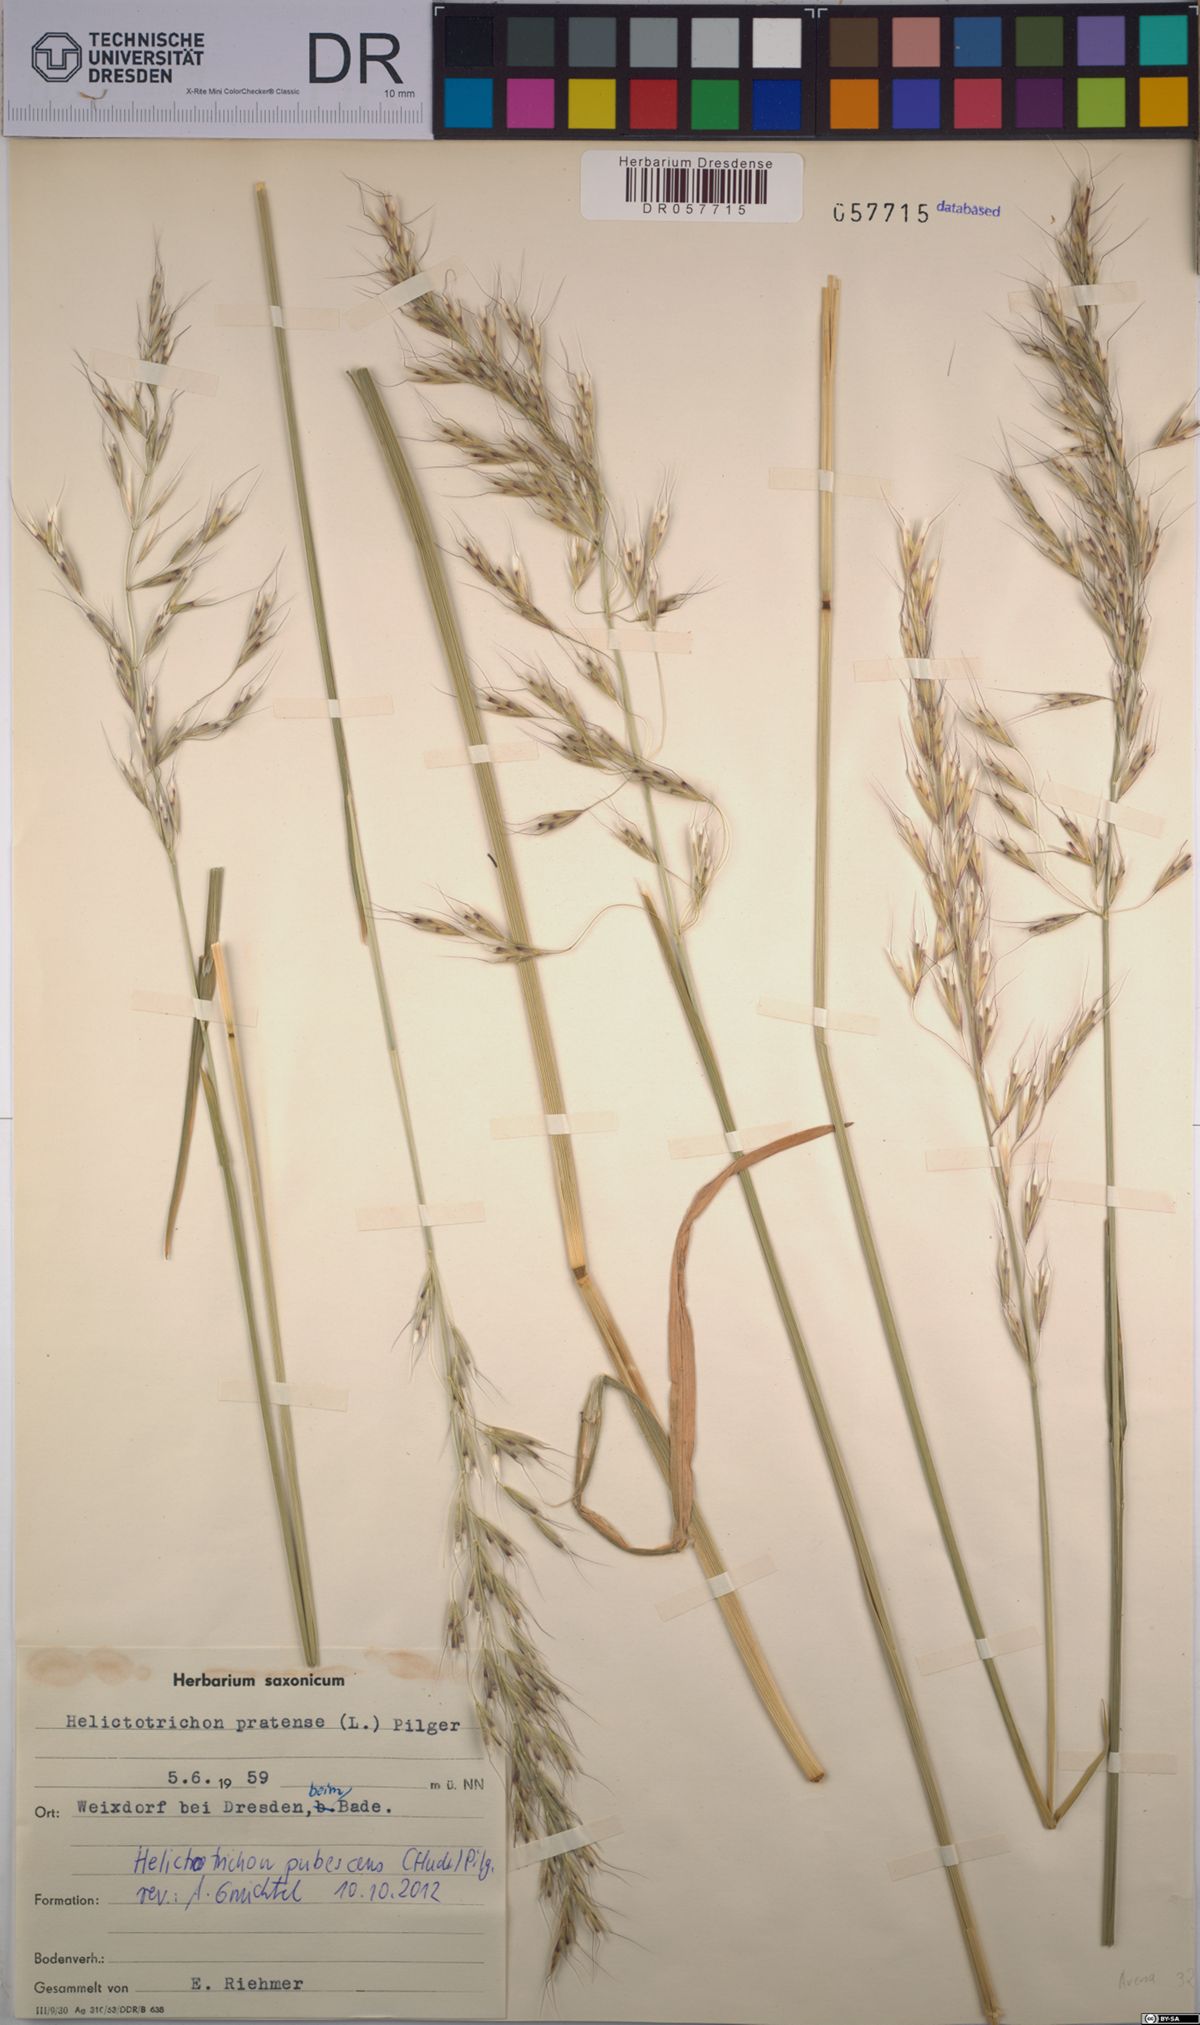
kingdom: Plantae
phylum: Tracheophyta
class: Liliopsida
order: Poales
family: Poaceae
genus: Avenula
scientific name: Avenula pubescens
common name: Downy alpine oatgrass
